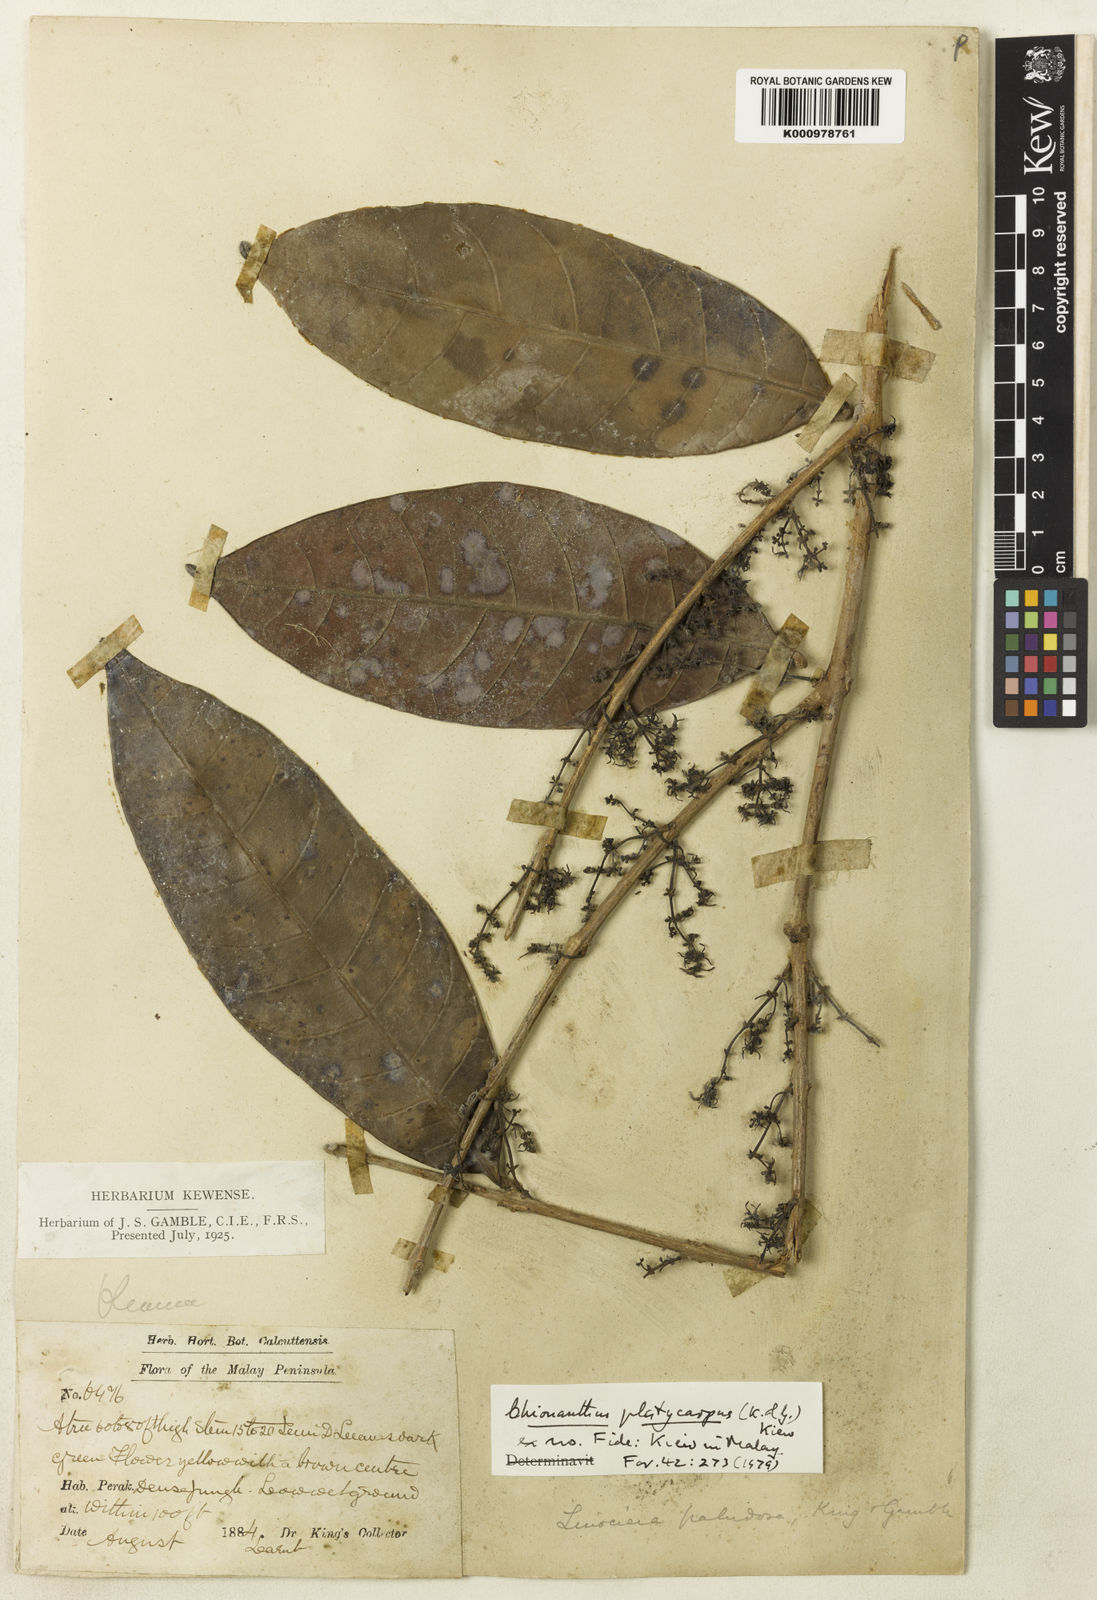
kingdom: Plantae
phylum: Tracheophyta
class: Magnoliopsida
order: Lamiales
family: Oleaceae
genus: Chionanthus
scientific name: Chionanthus
